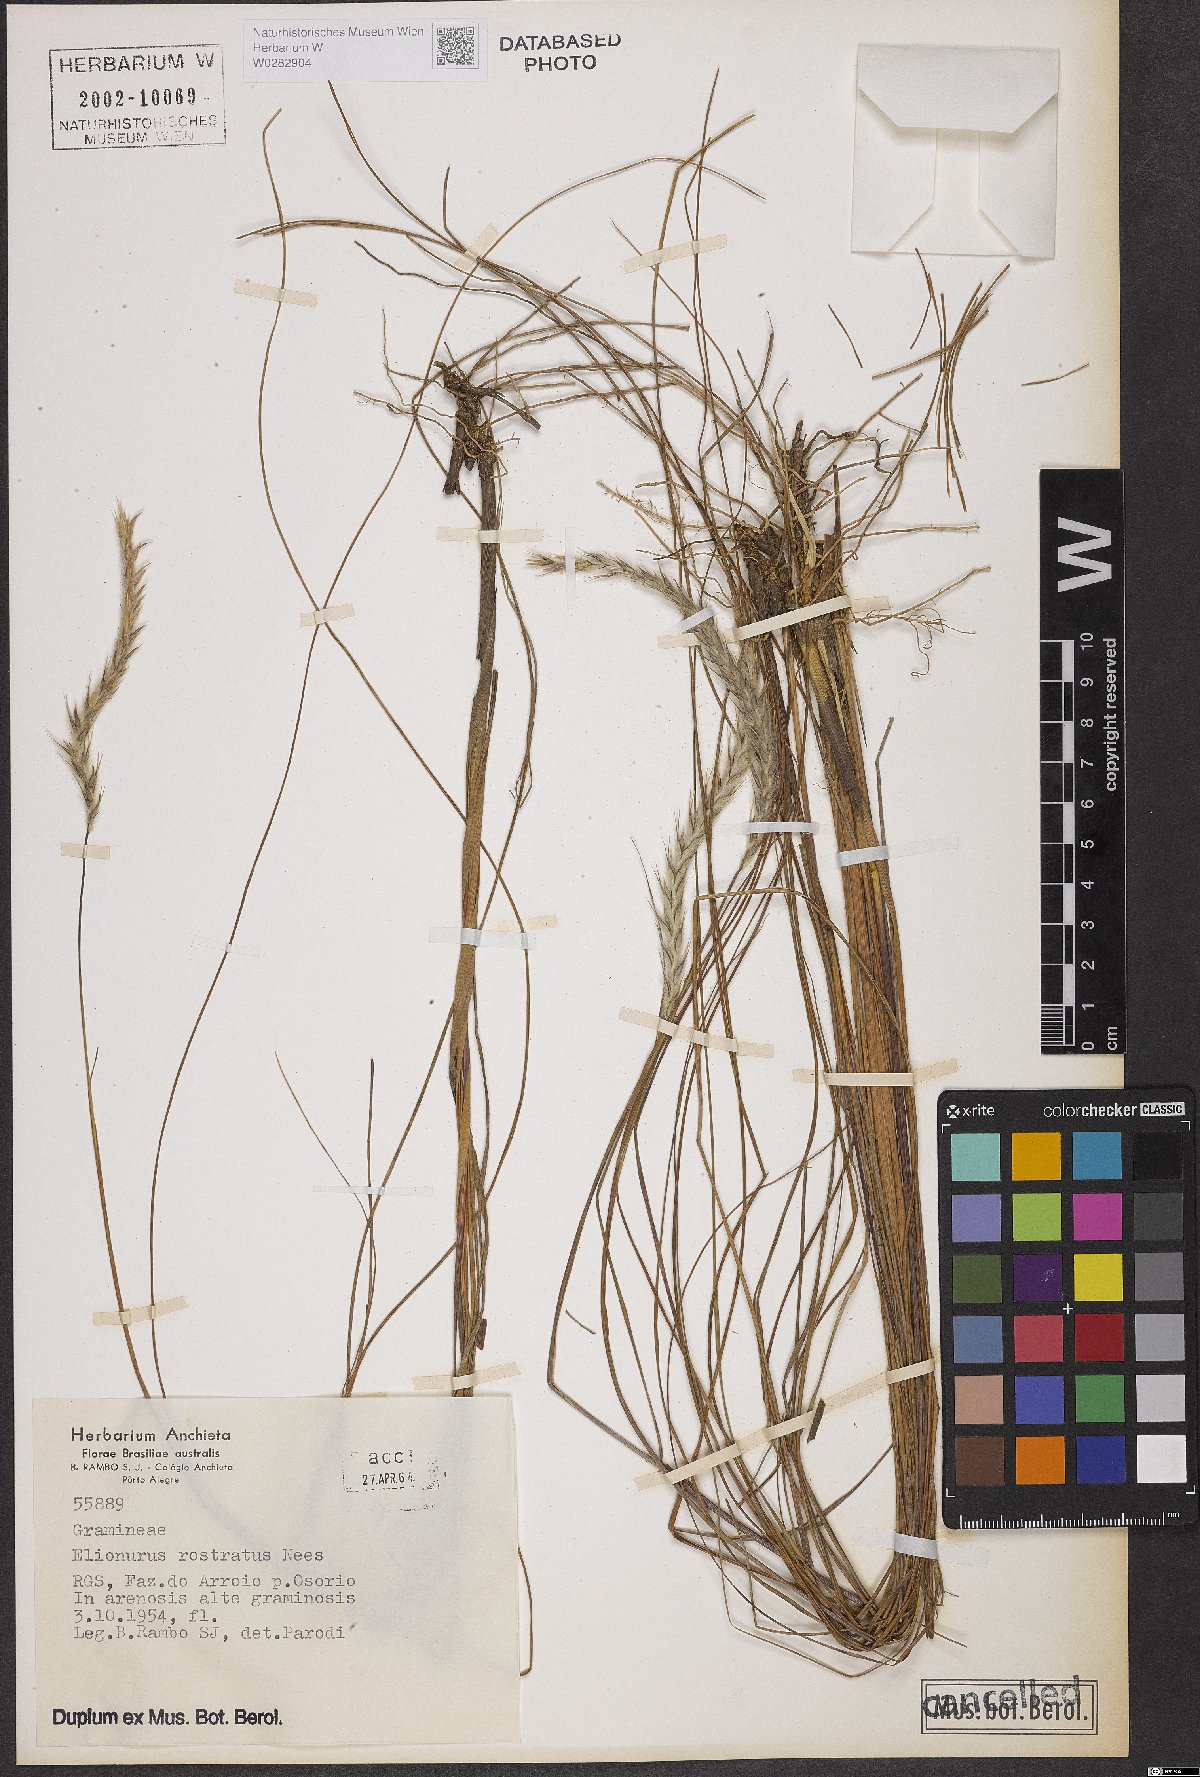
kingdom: Plantae
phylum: Tracheophyta
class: Liliopsida
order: Poales
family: Poaceae
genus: Elionurus
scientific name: Elionurus muticus
